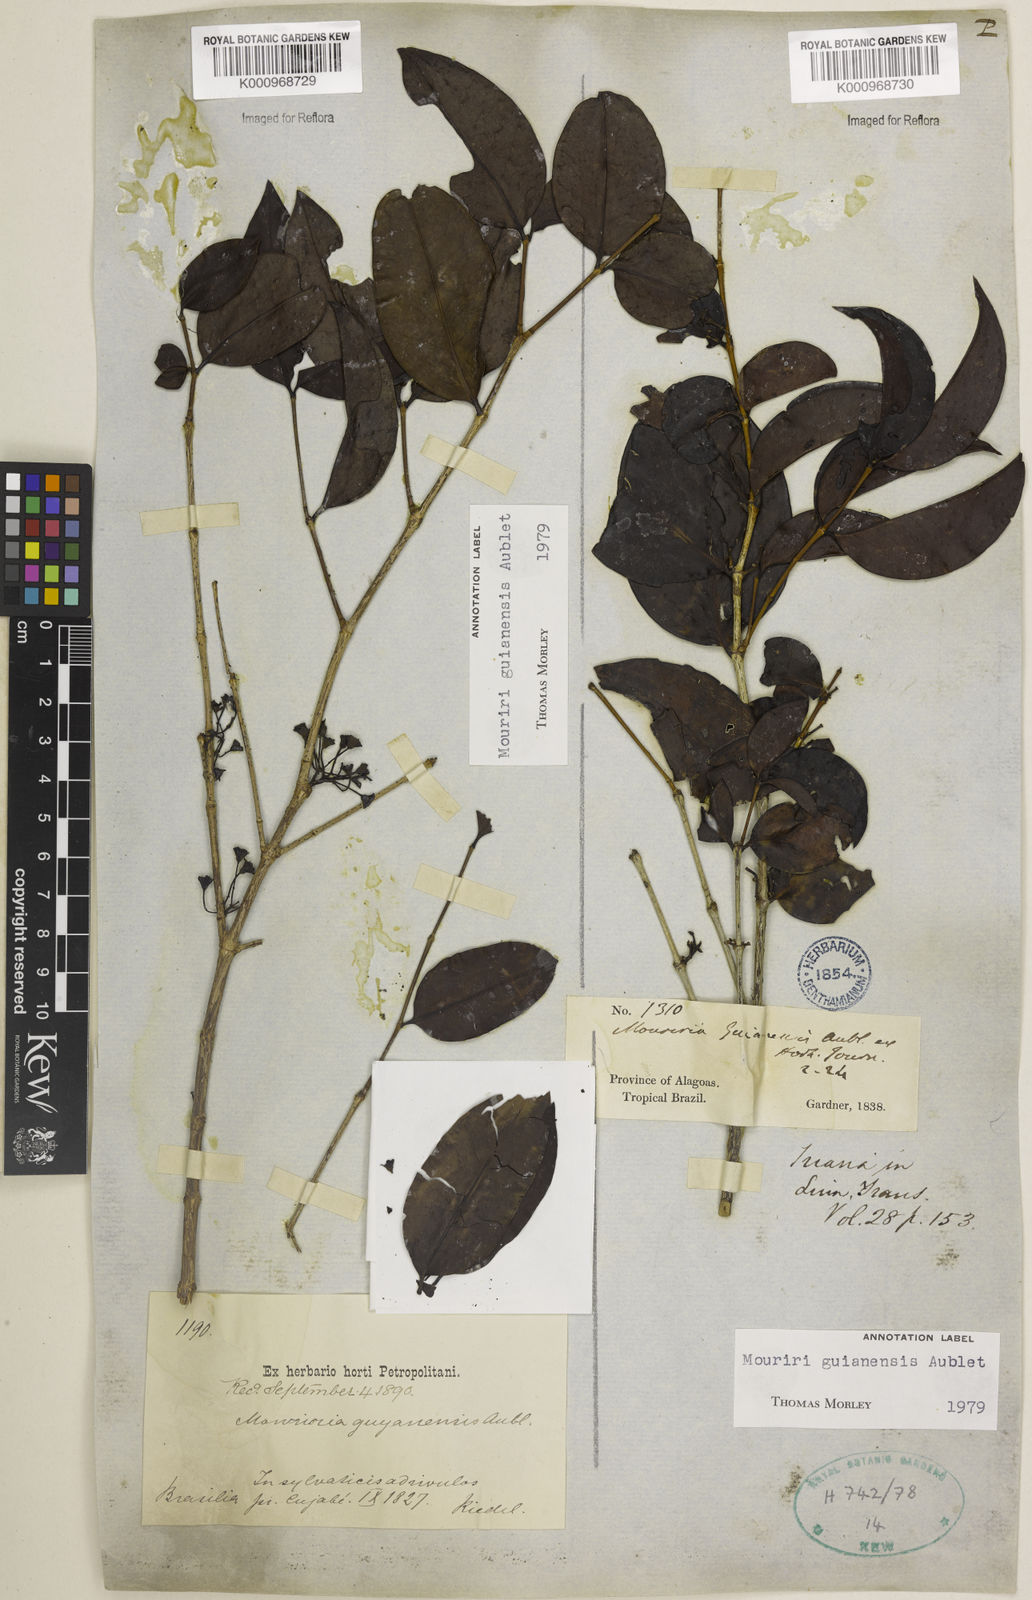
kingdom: Plantae
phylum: Tracheophyta
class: Magnoliopsida
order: Myrtales
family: Melastomataceae
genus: Mouriri
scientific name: Mouriri guianensis
